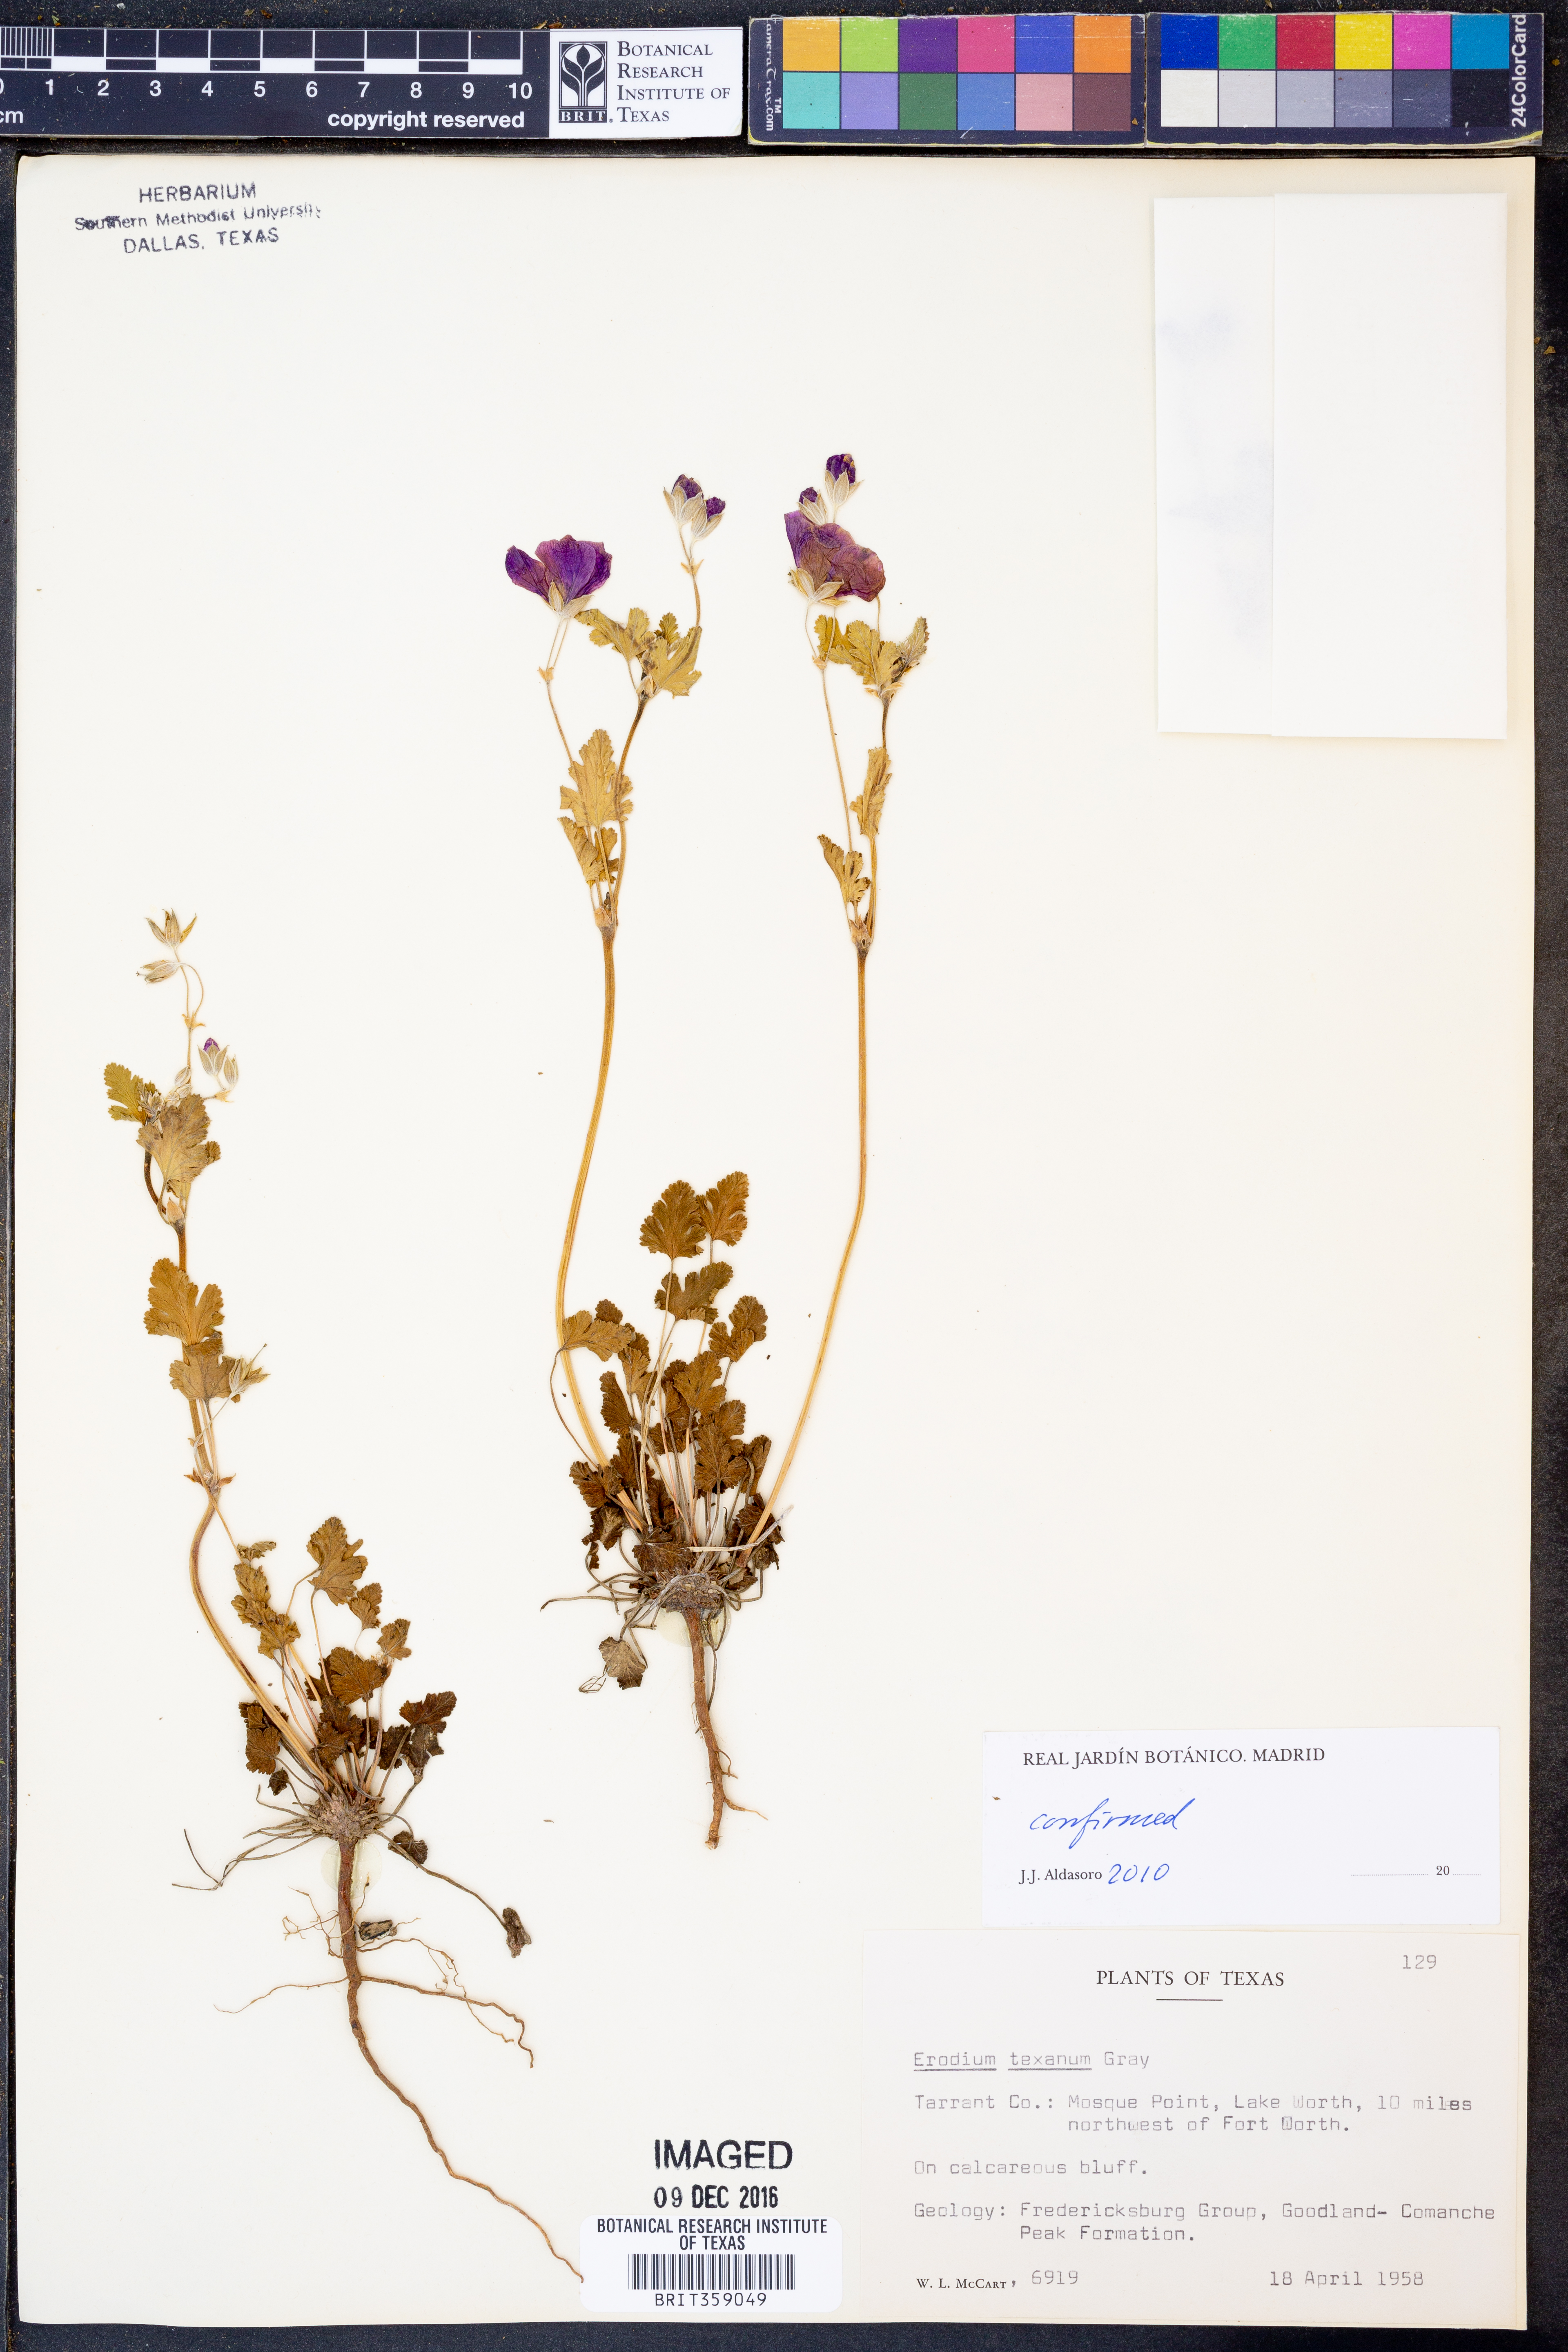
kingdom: Plantae
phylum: Tracheophyta
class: Magnoliopsida
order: Geraniales
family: Geraniaceae
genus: Erodium
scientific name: Erodium texanum
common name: Texas stork's-bill
